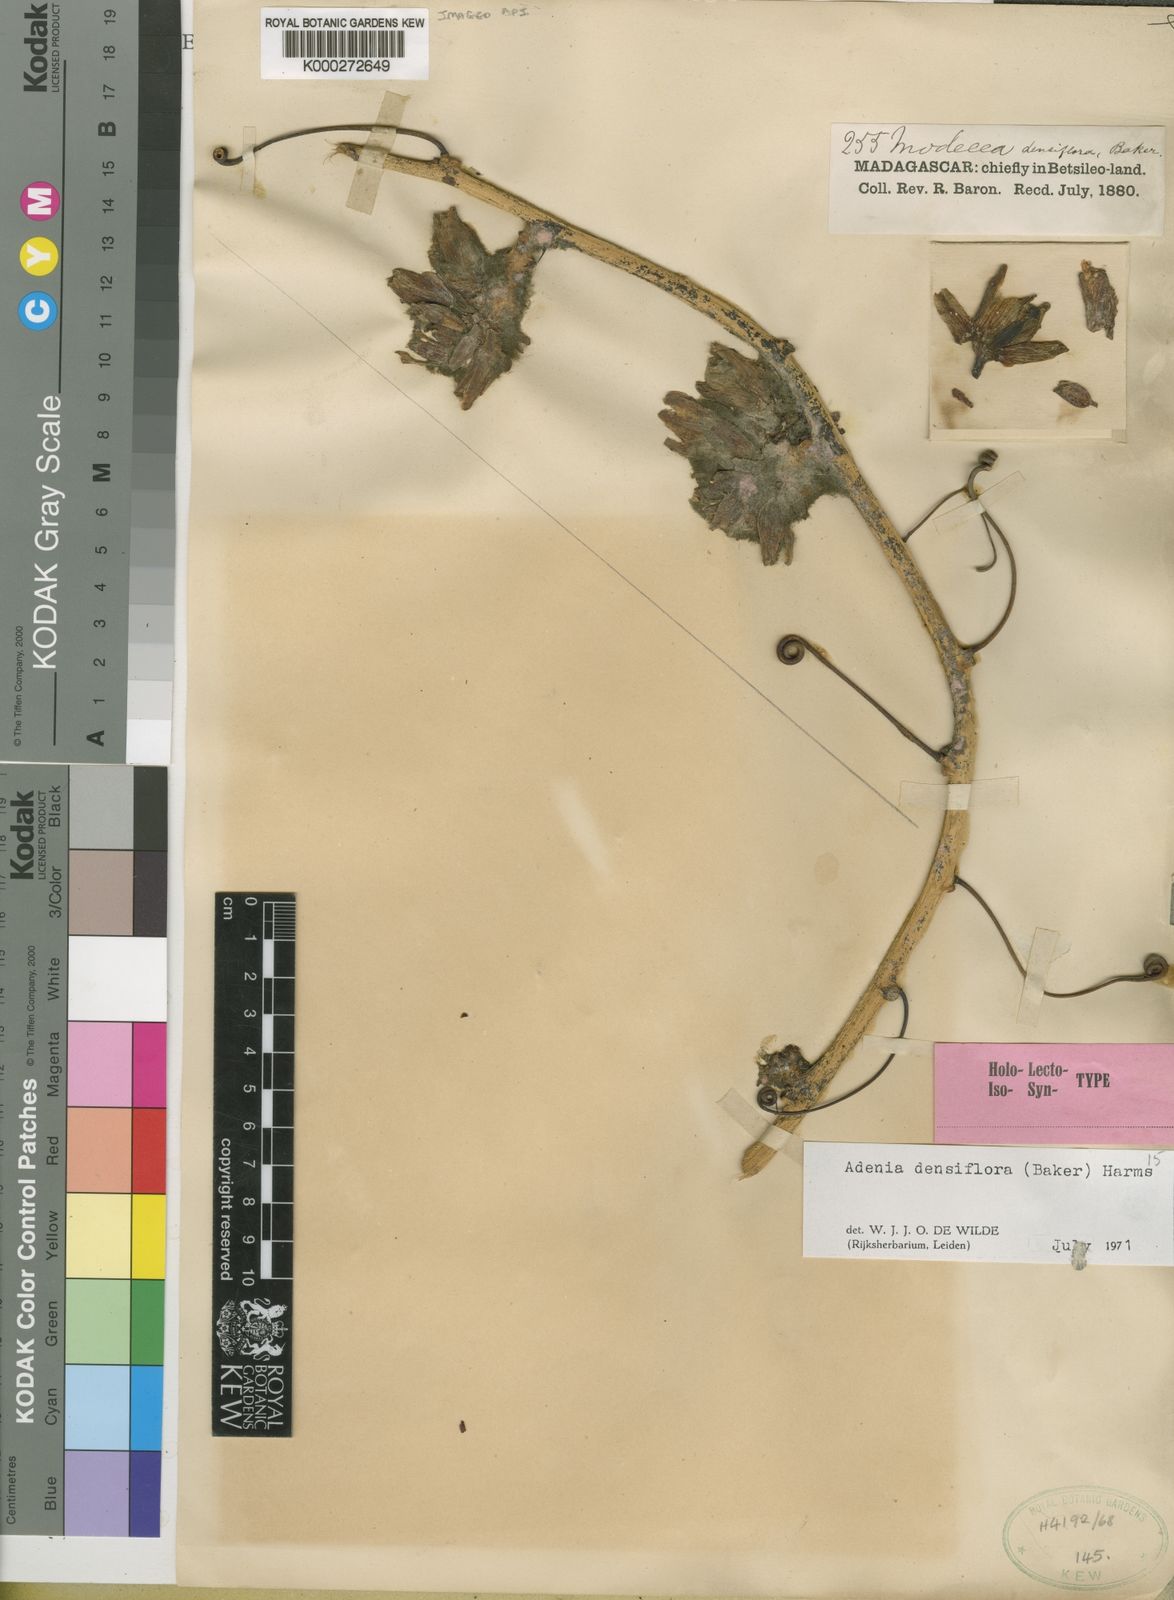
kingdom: Plantae
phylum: Tracheophyta
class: Magnoliopsida
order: Malpighiales
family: Passifloraceae
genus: Adenia
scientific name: Adenia
